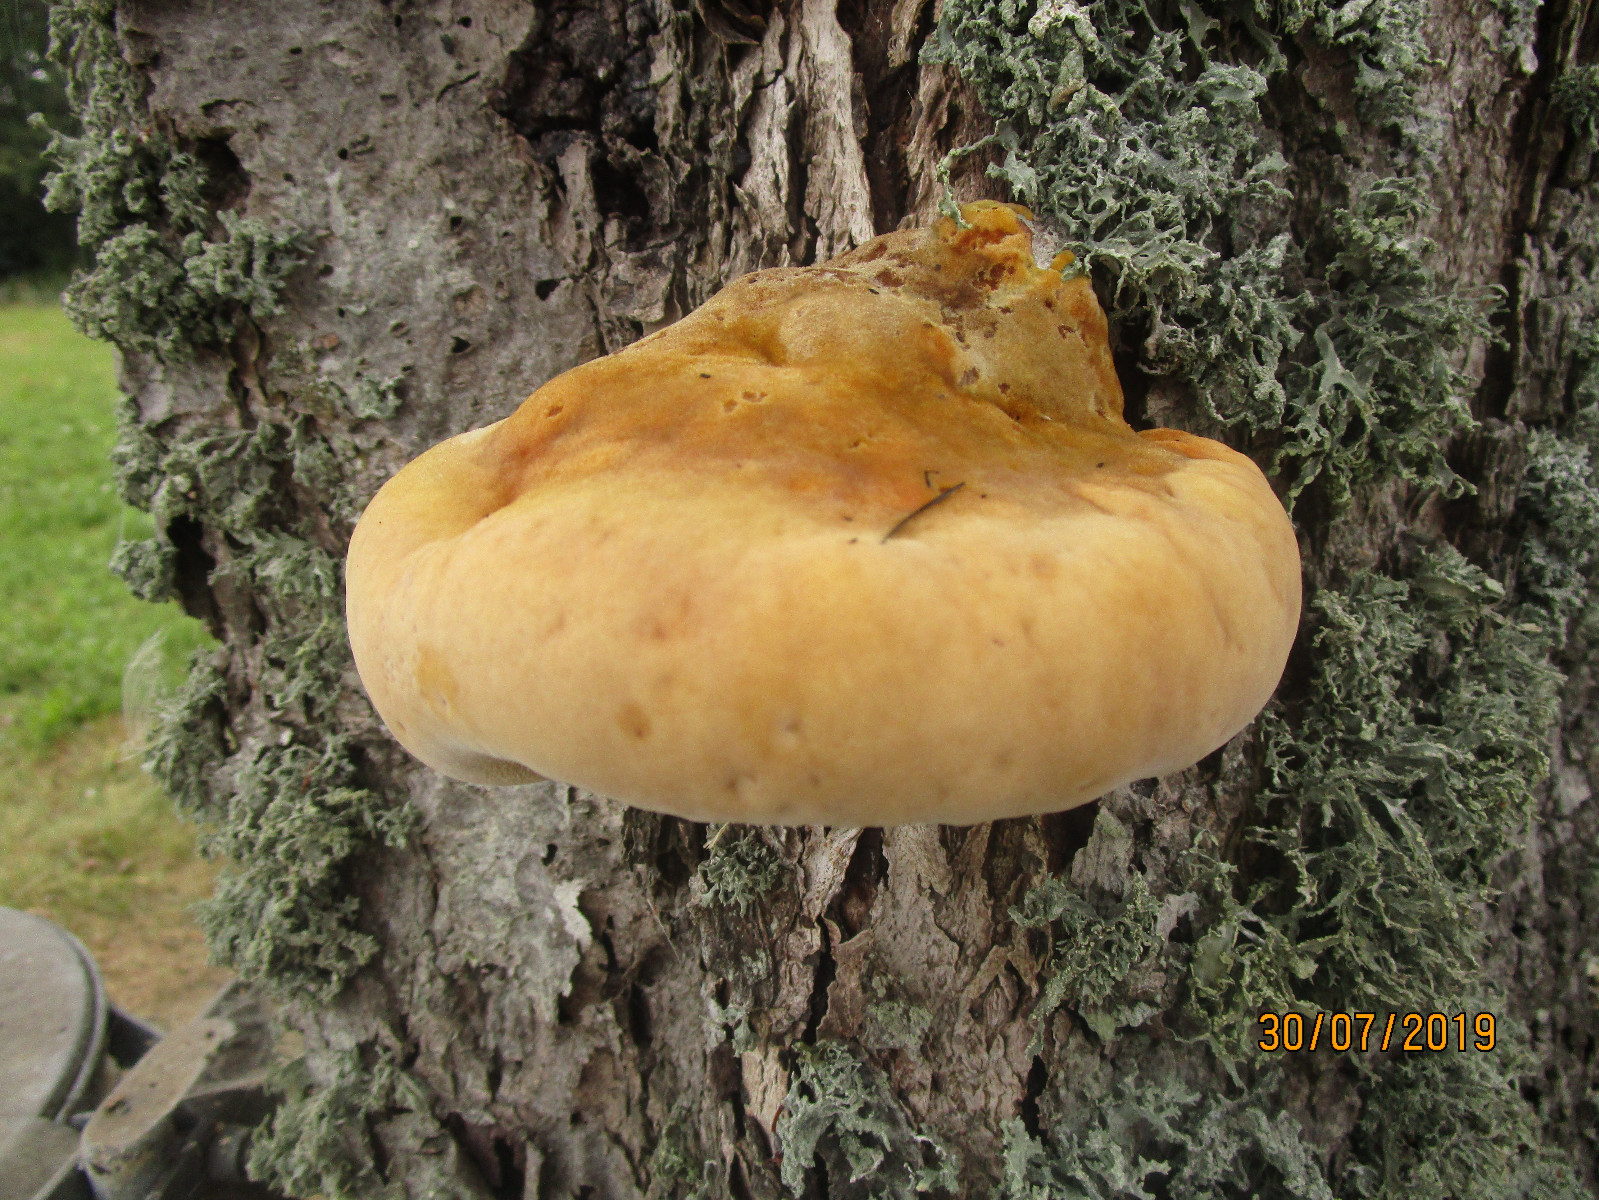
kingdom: Fungi
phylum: Basidiomycota
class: Agaricomycetes
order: Hymenochaetales
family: Hymenochaetaceae
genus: Inonotus
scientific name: Inonotus hispidus
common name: børstehåret spejlporesvamp
